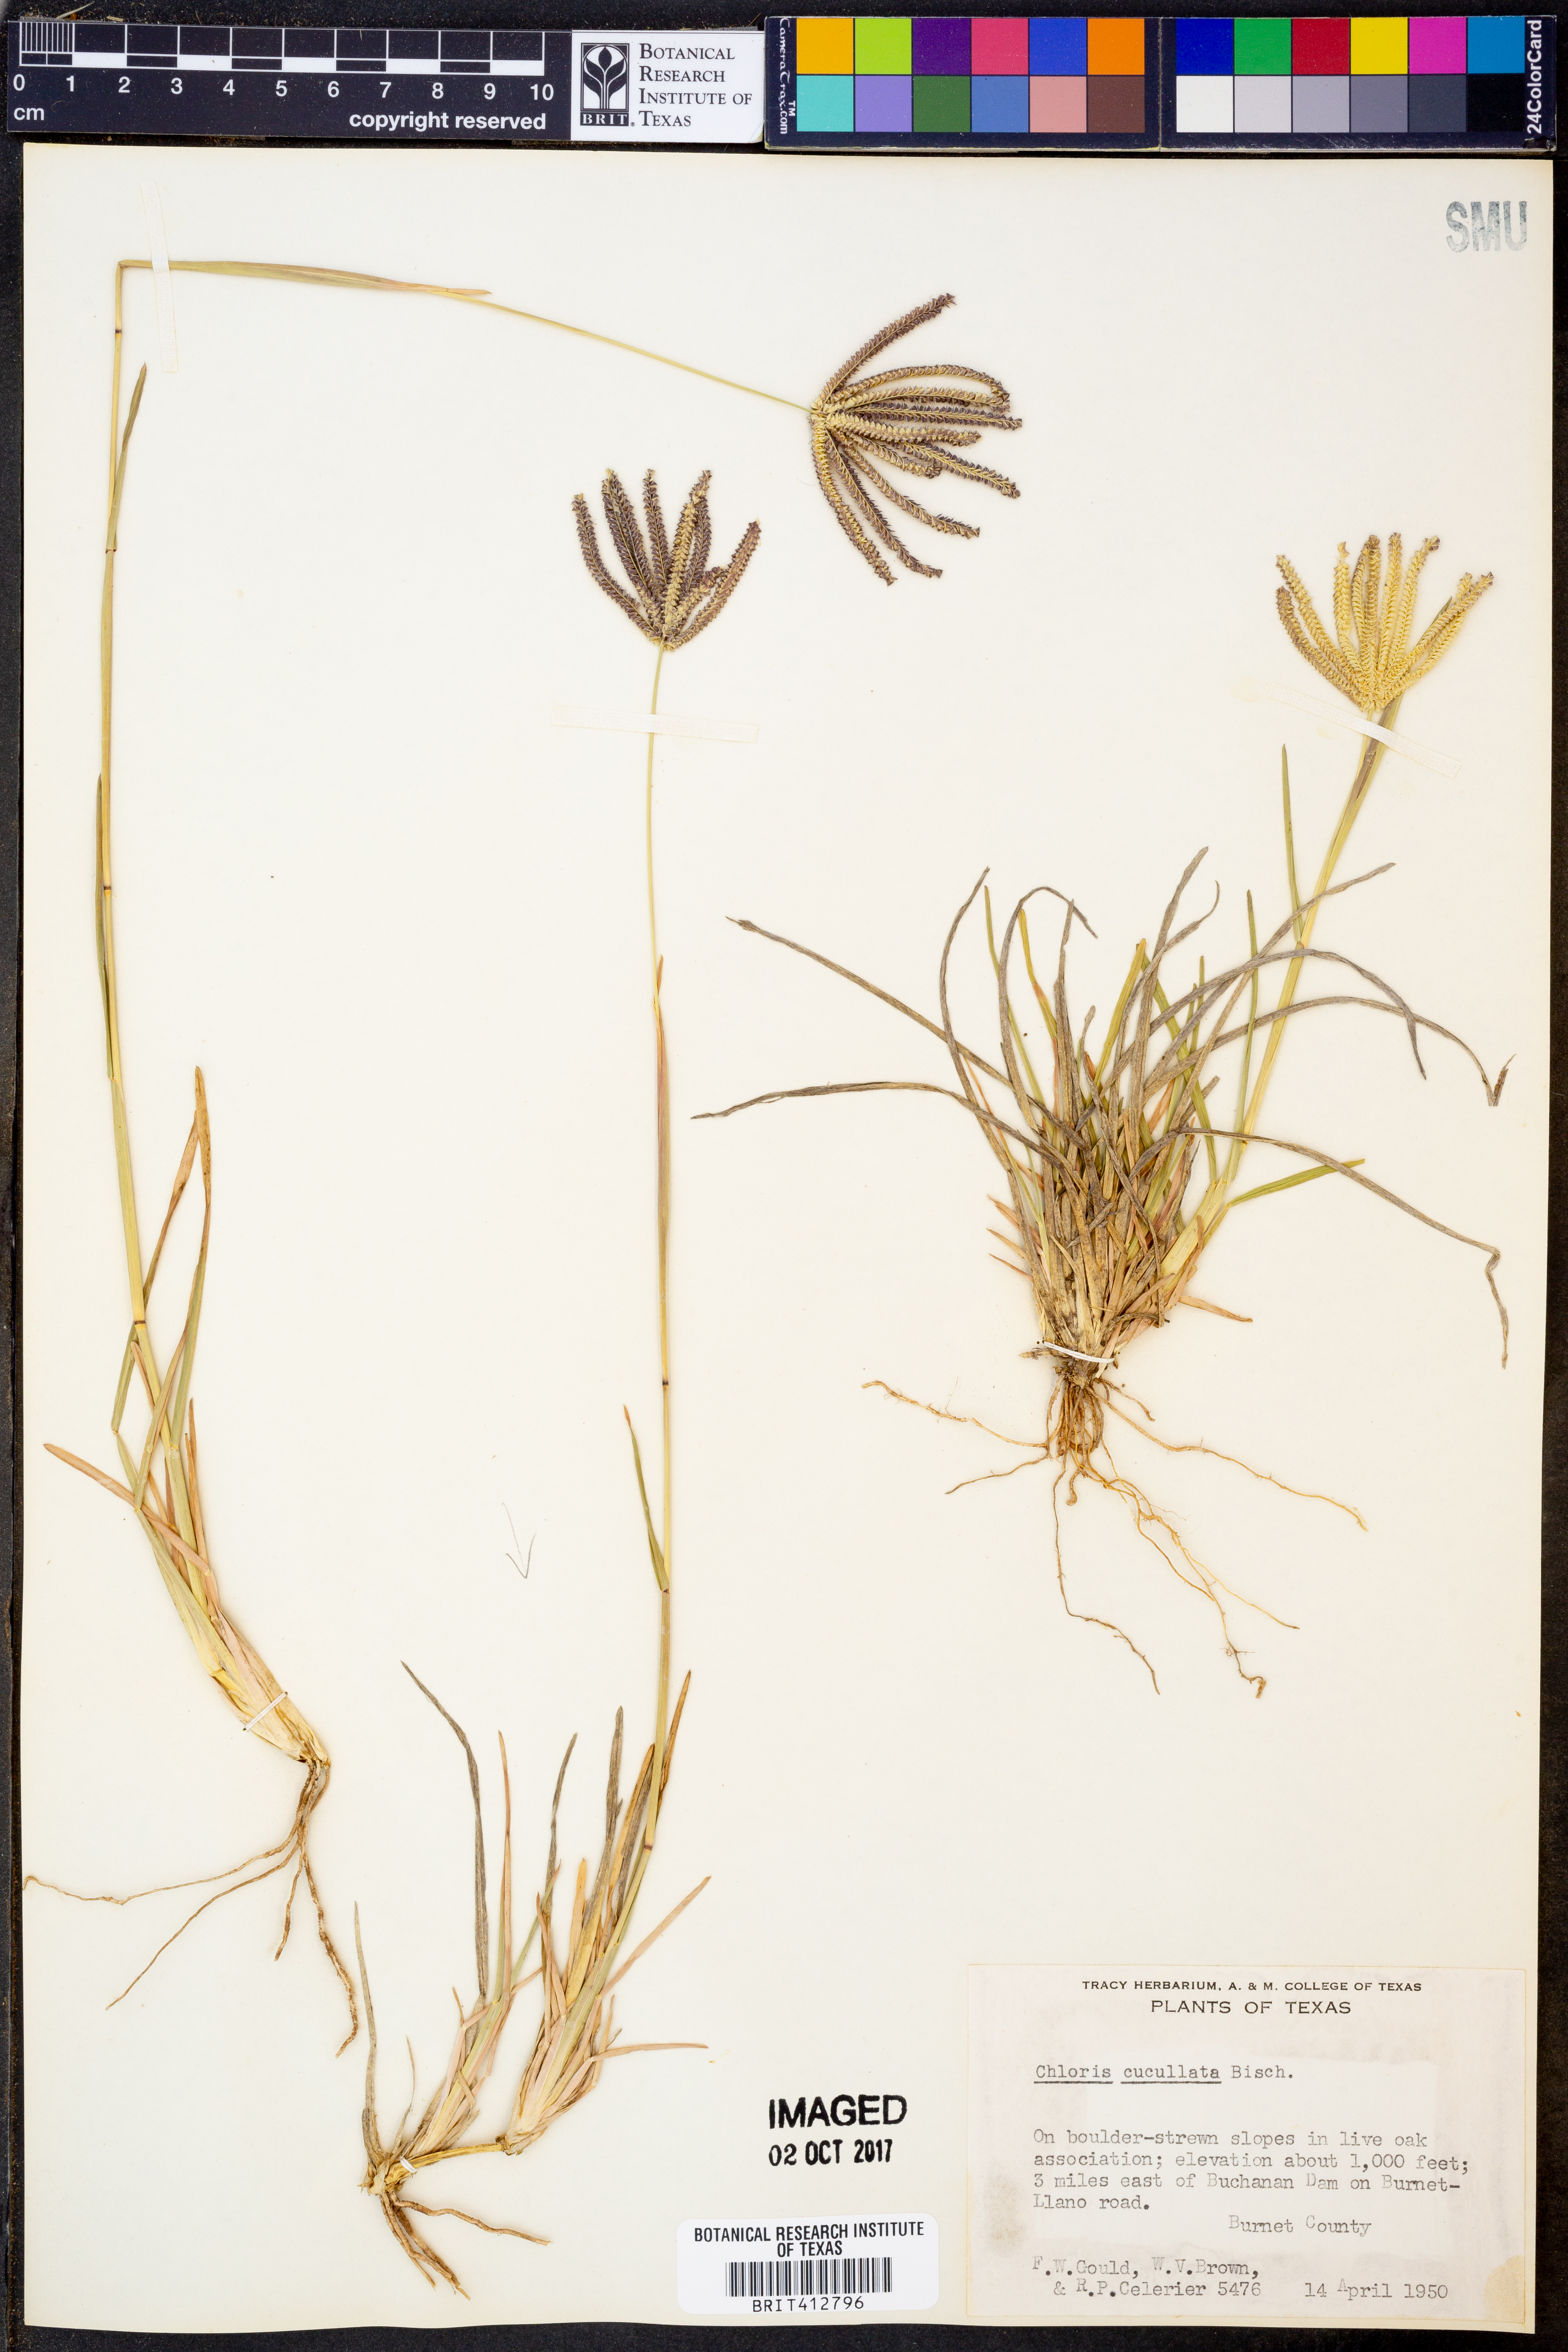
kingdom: Plantae
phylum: Tracheophyta
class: Liliopsida
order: Poales
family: Poaceae
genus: Chloris
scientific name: Chloris cucullata
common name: Hooded windmill grass
